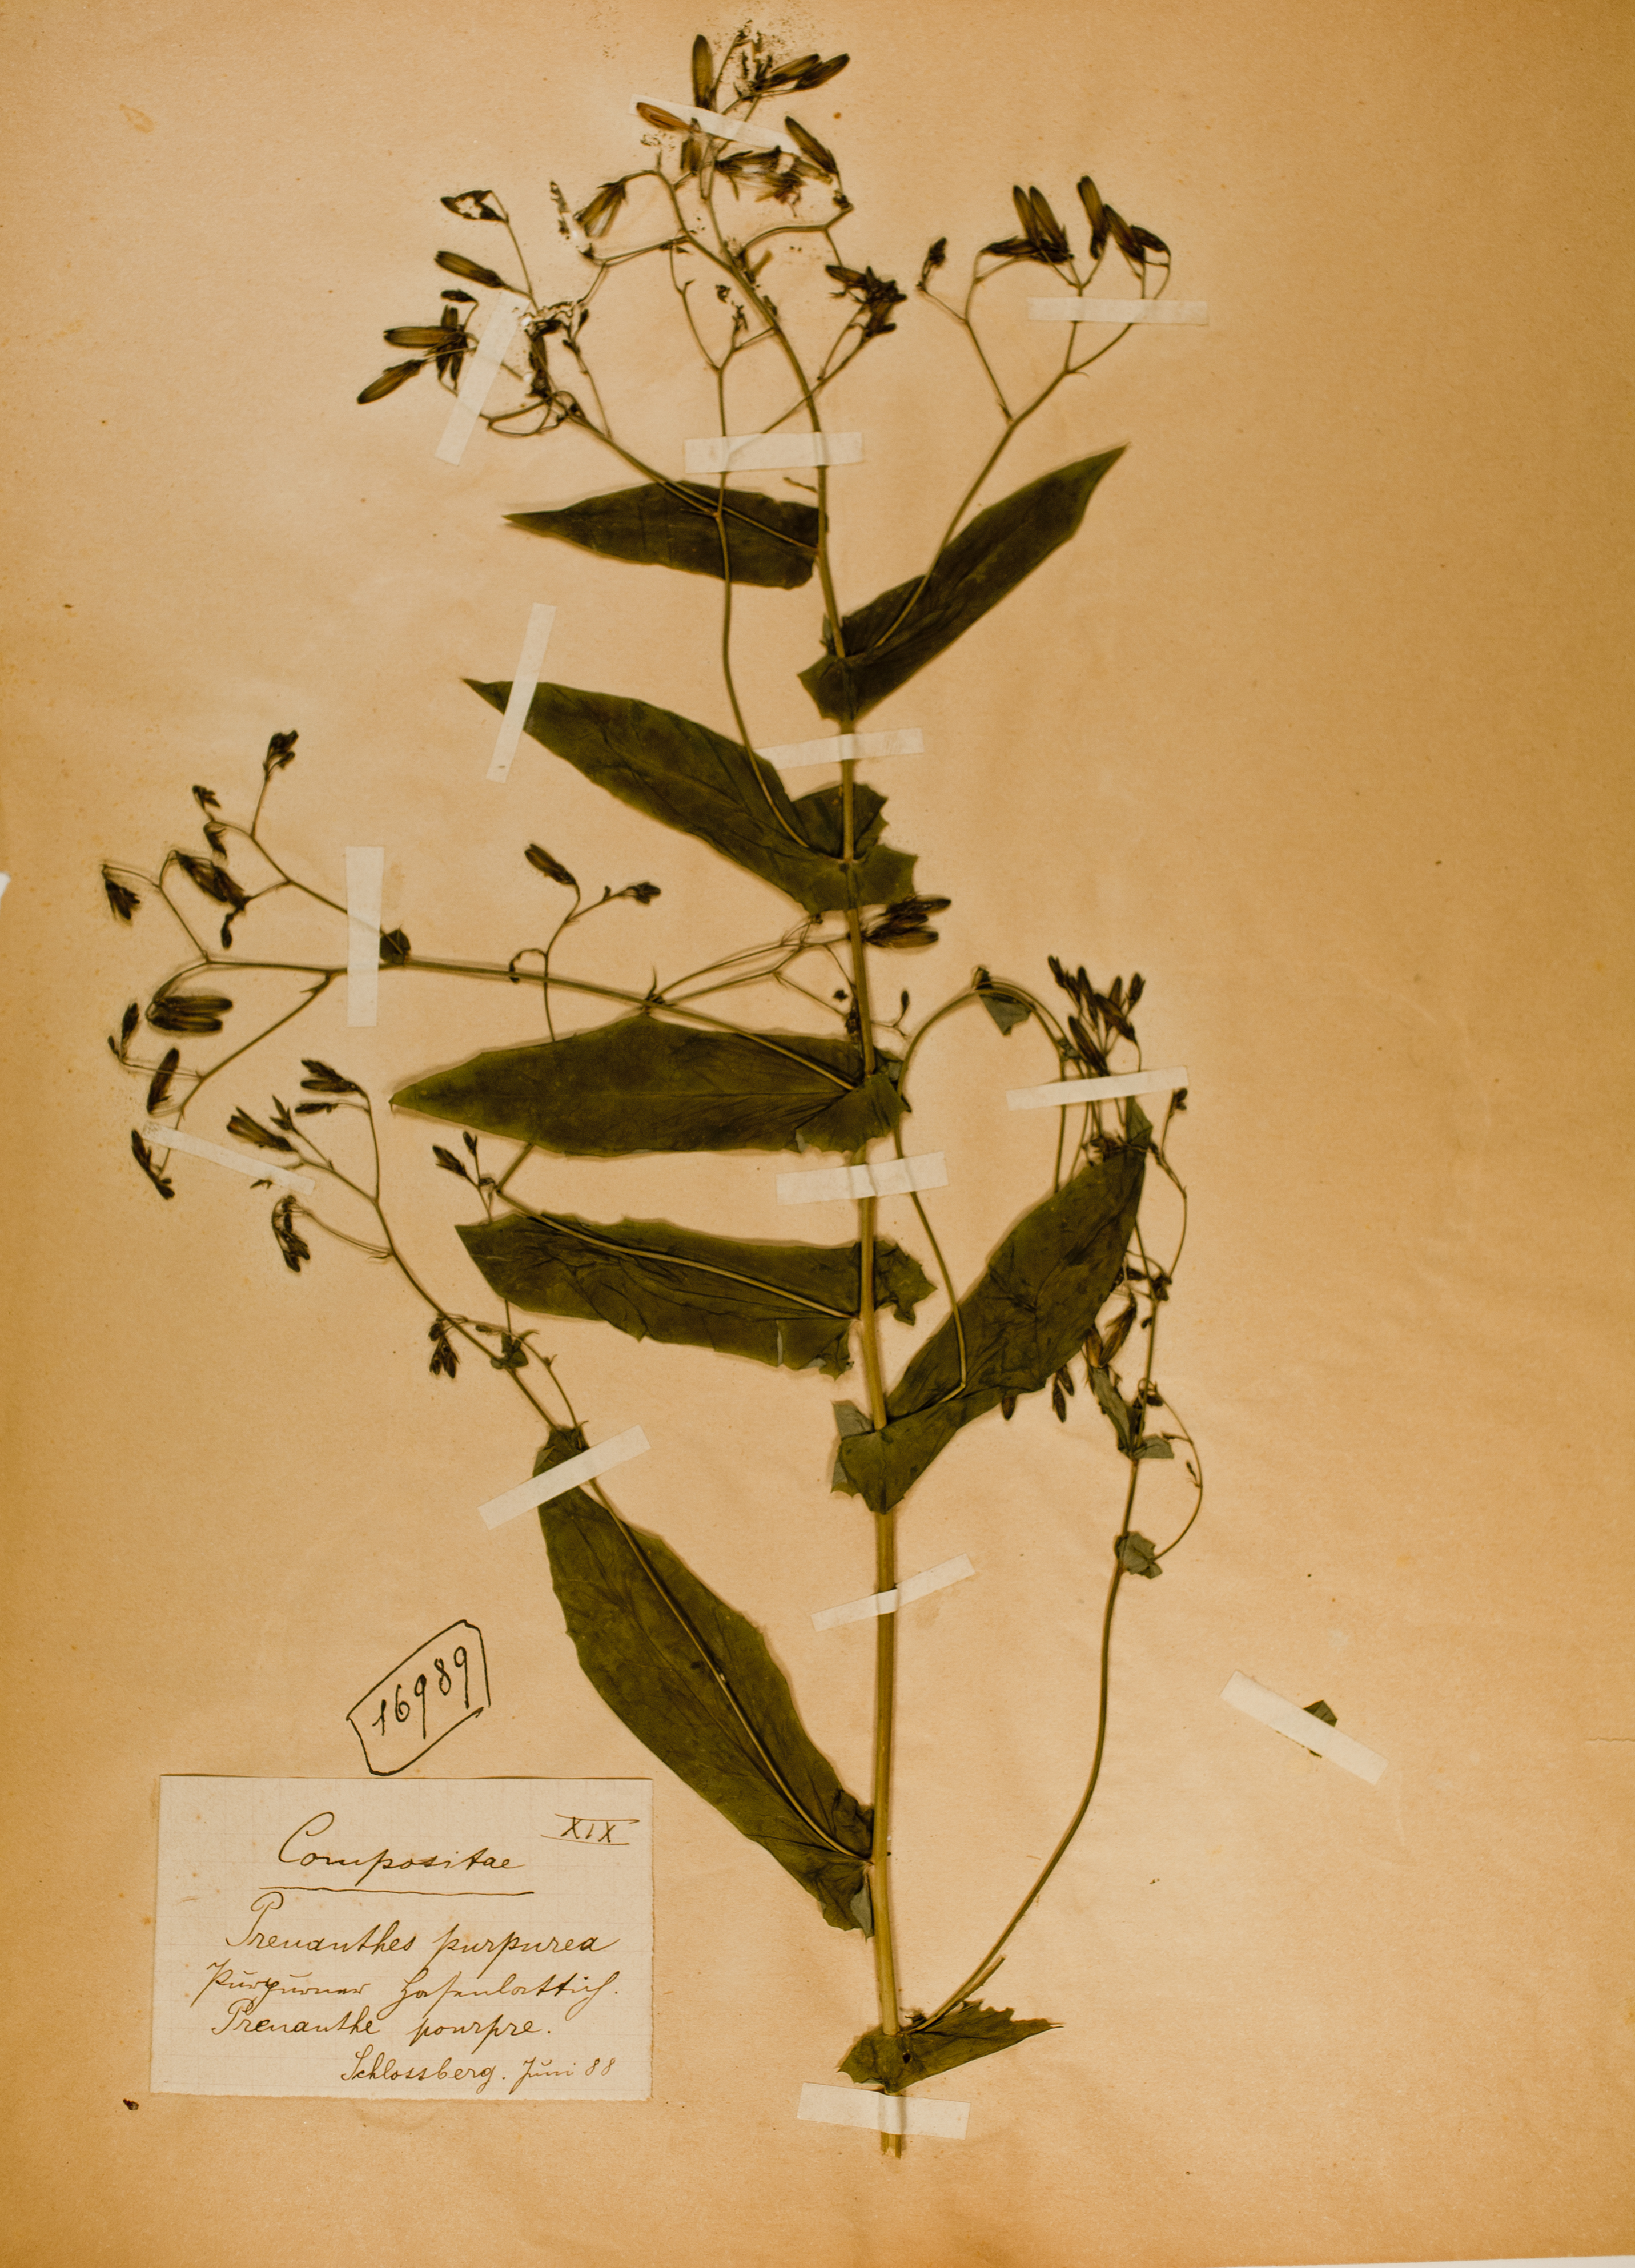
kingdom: Plantae
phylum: Tracheophyta
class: Magnoliopsida
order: Asterales
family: Asteraceae
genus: Prenanthes
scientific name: Prenanthes purpurea
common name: Purple lettuce
